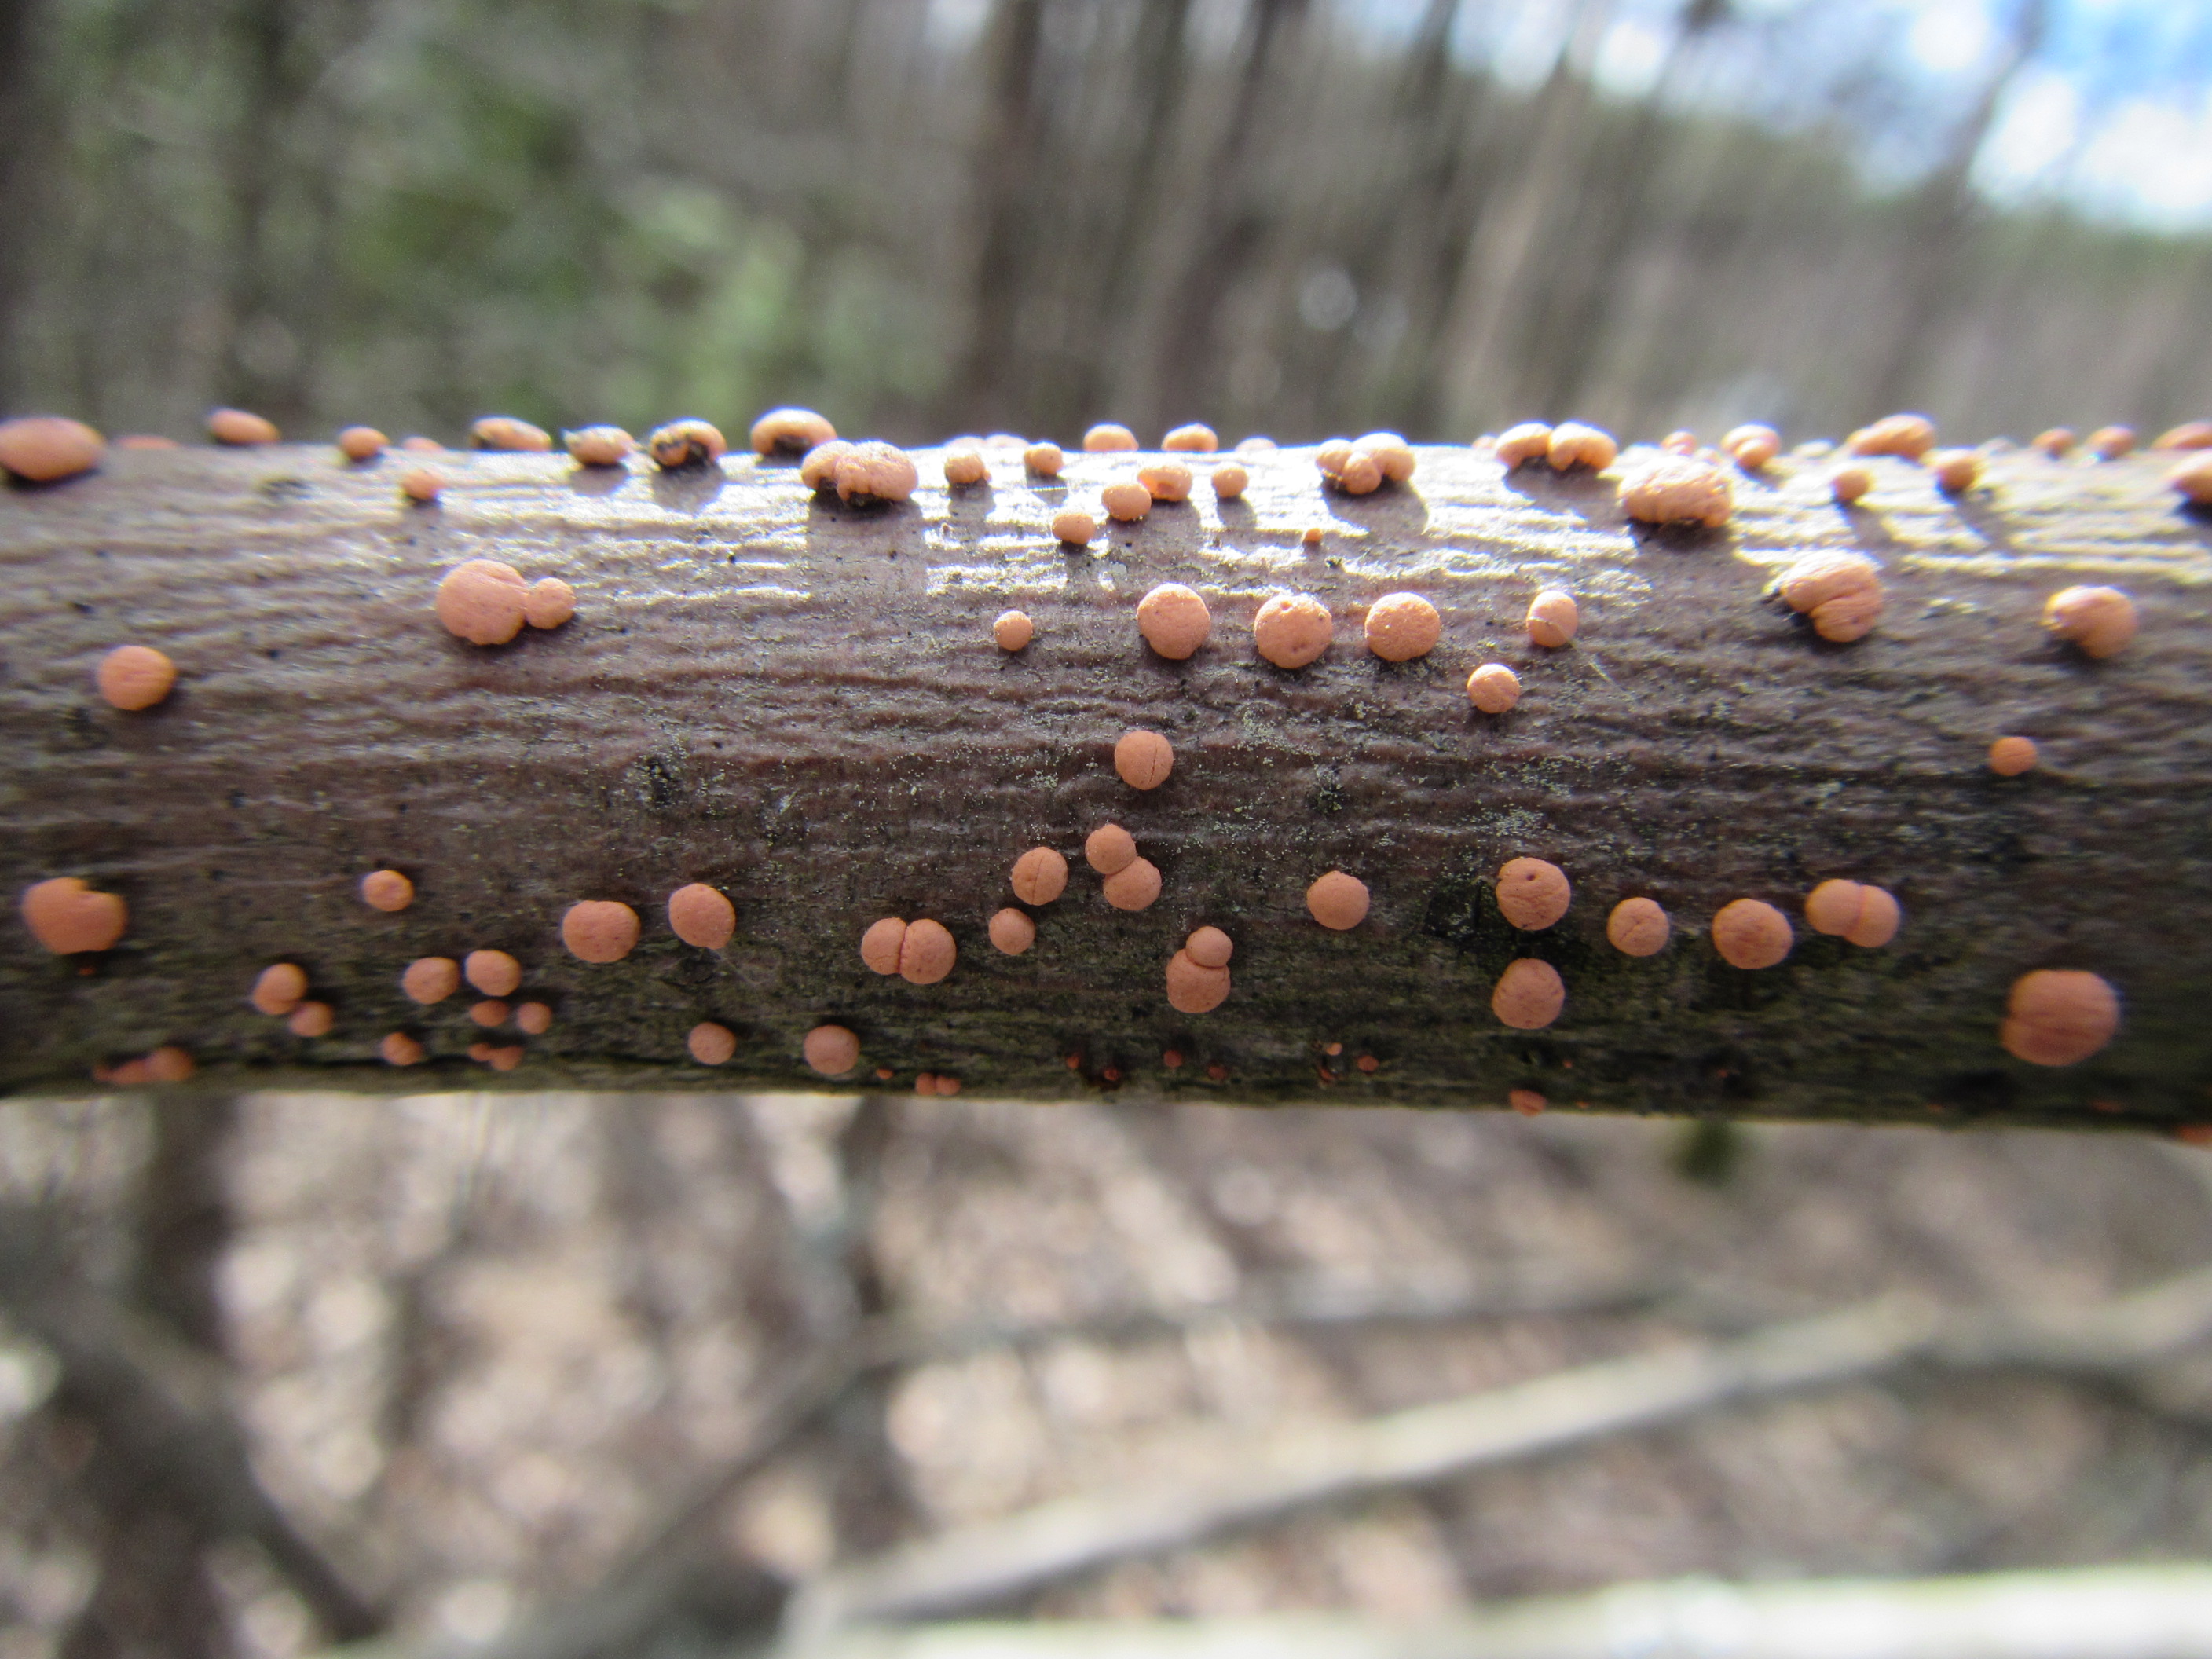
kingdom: Fungi
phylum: Ascomycota
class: Sordariomycetes
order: Hypocreales
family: Nectriaceae
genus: Nectria
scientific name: Nectria cinnabarina
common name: Coral spot
